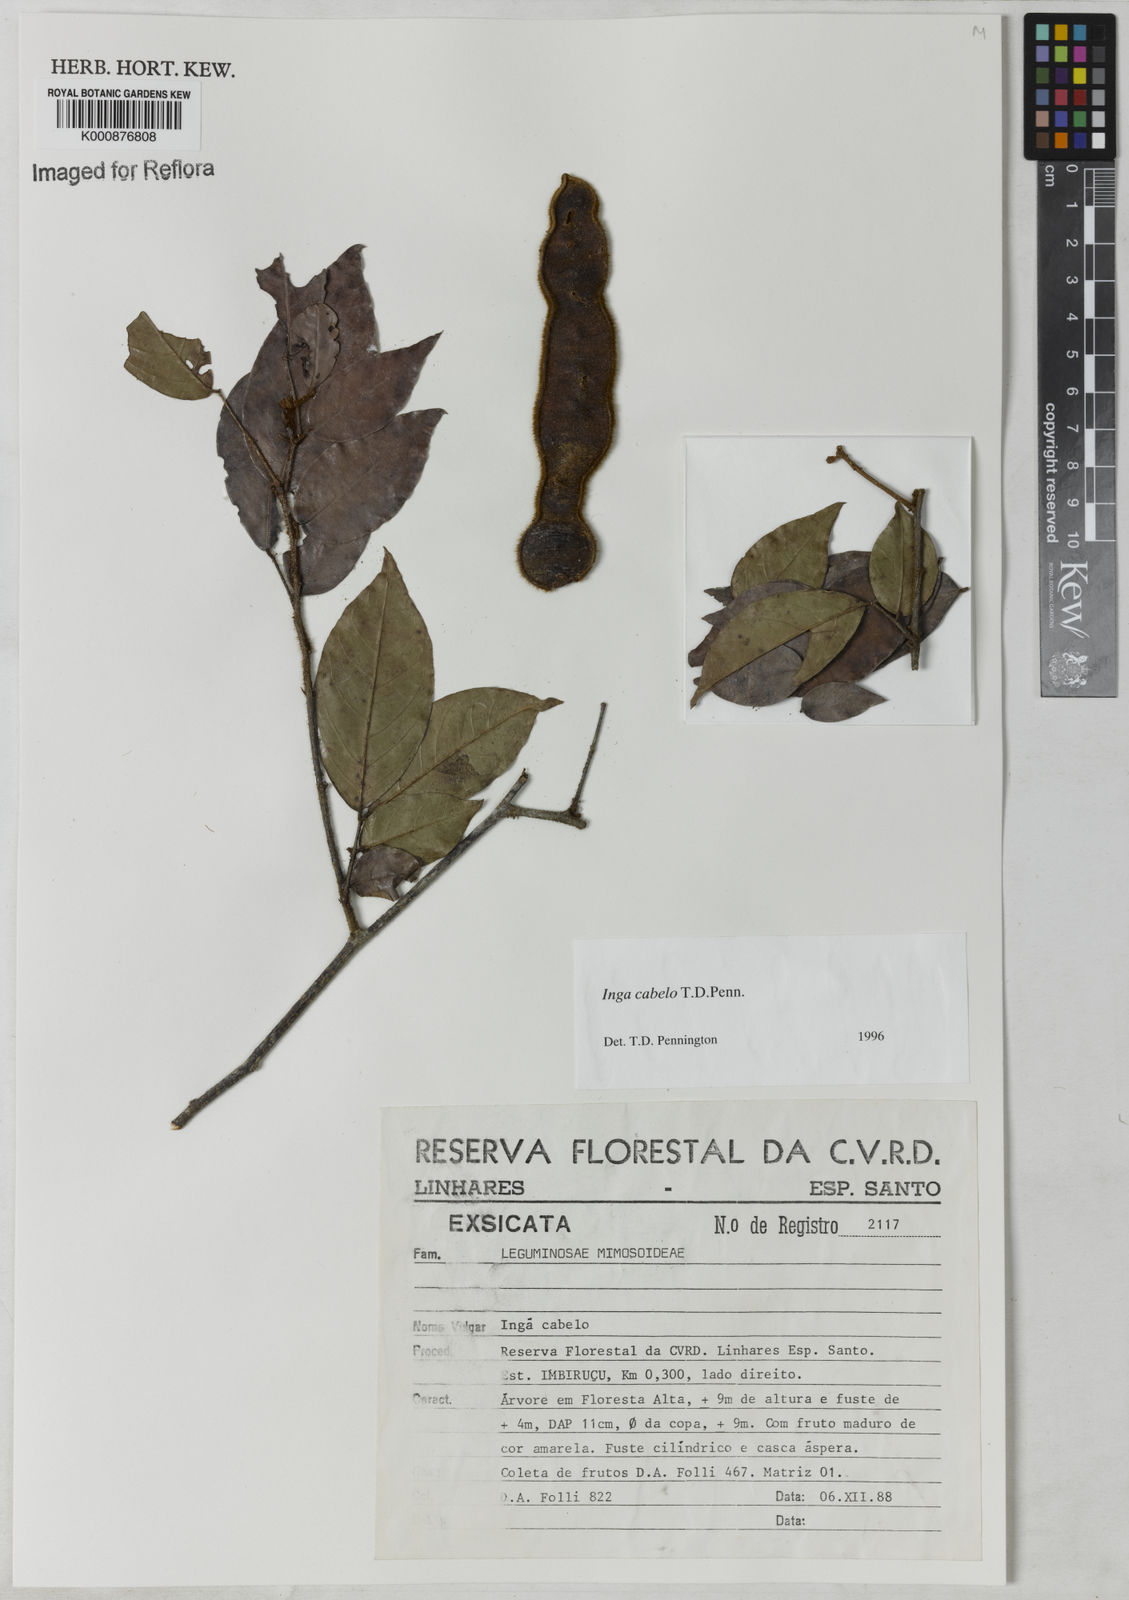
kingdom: Plantae
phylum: Tracheophyta
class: Magnoliopsida
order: Fabales
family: Fabaceae
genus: Inga
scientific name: Inga cabelo
